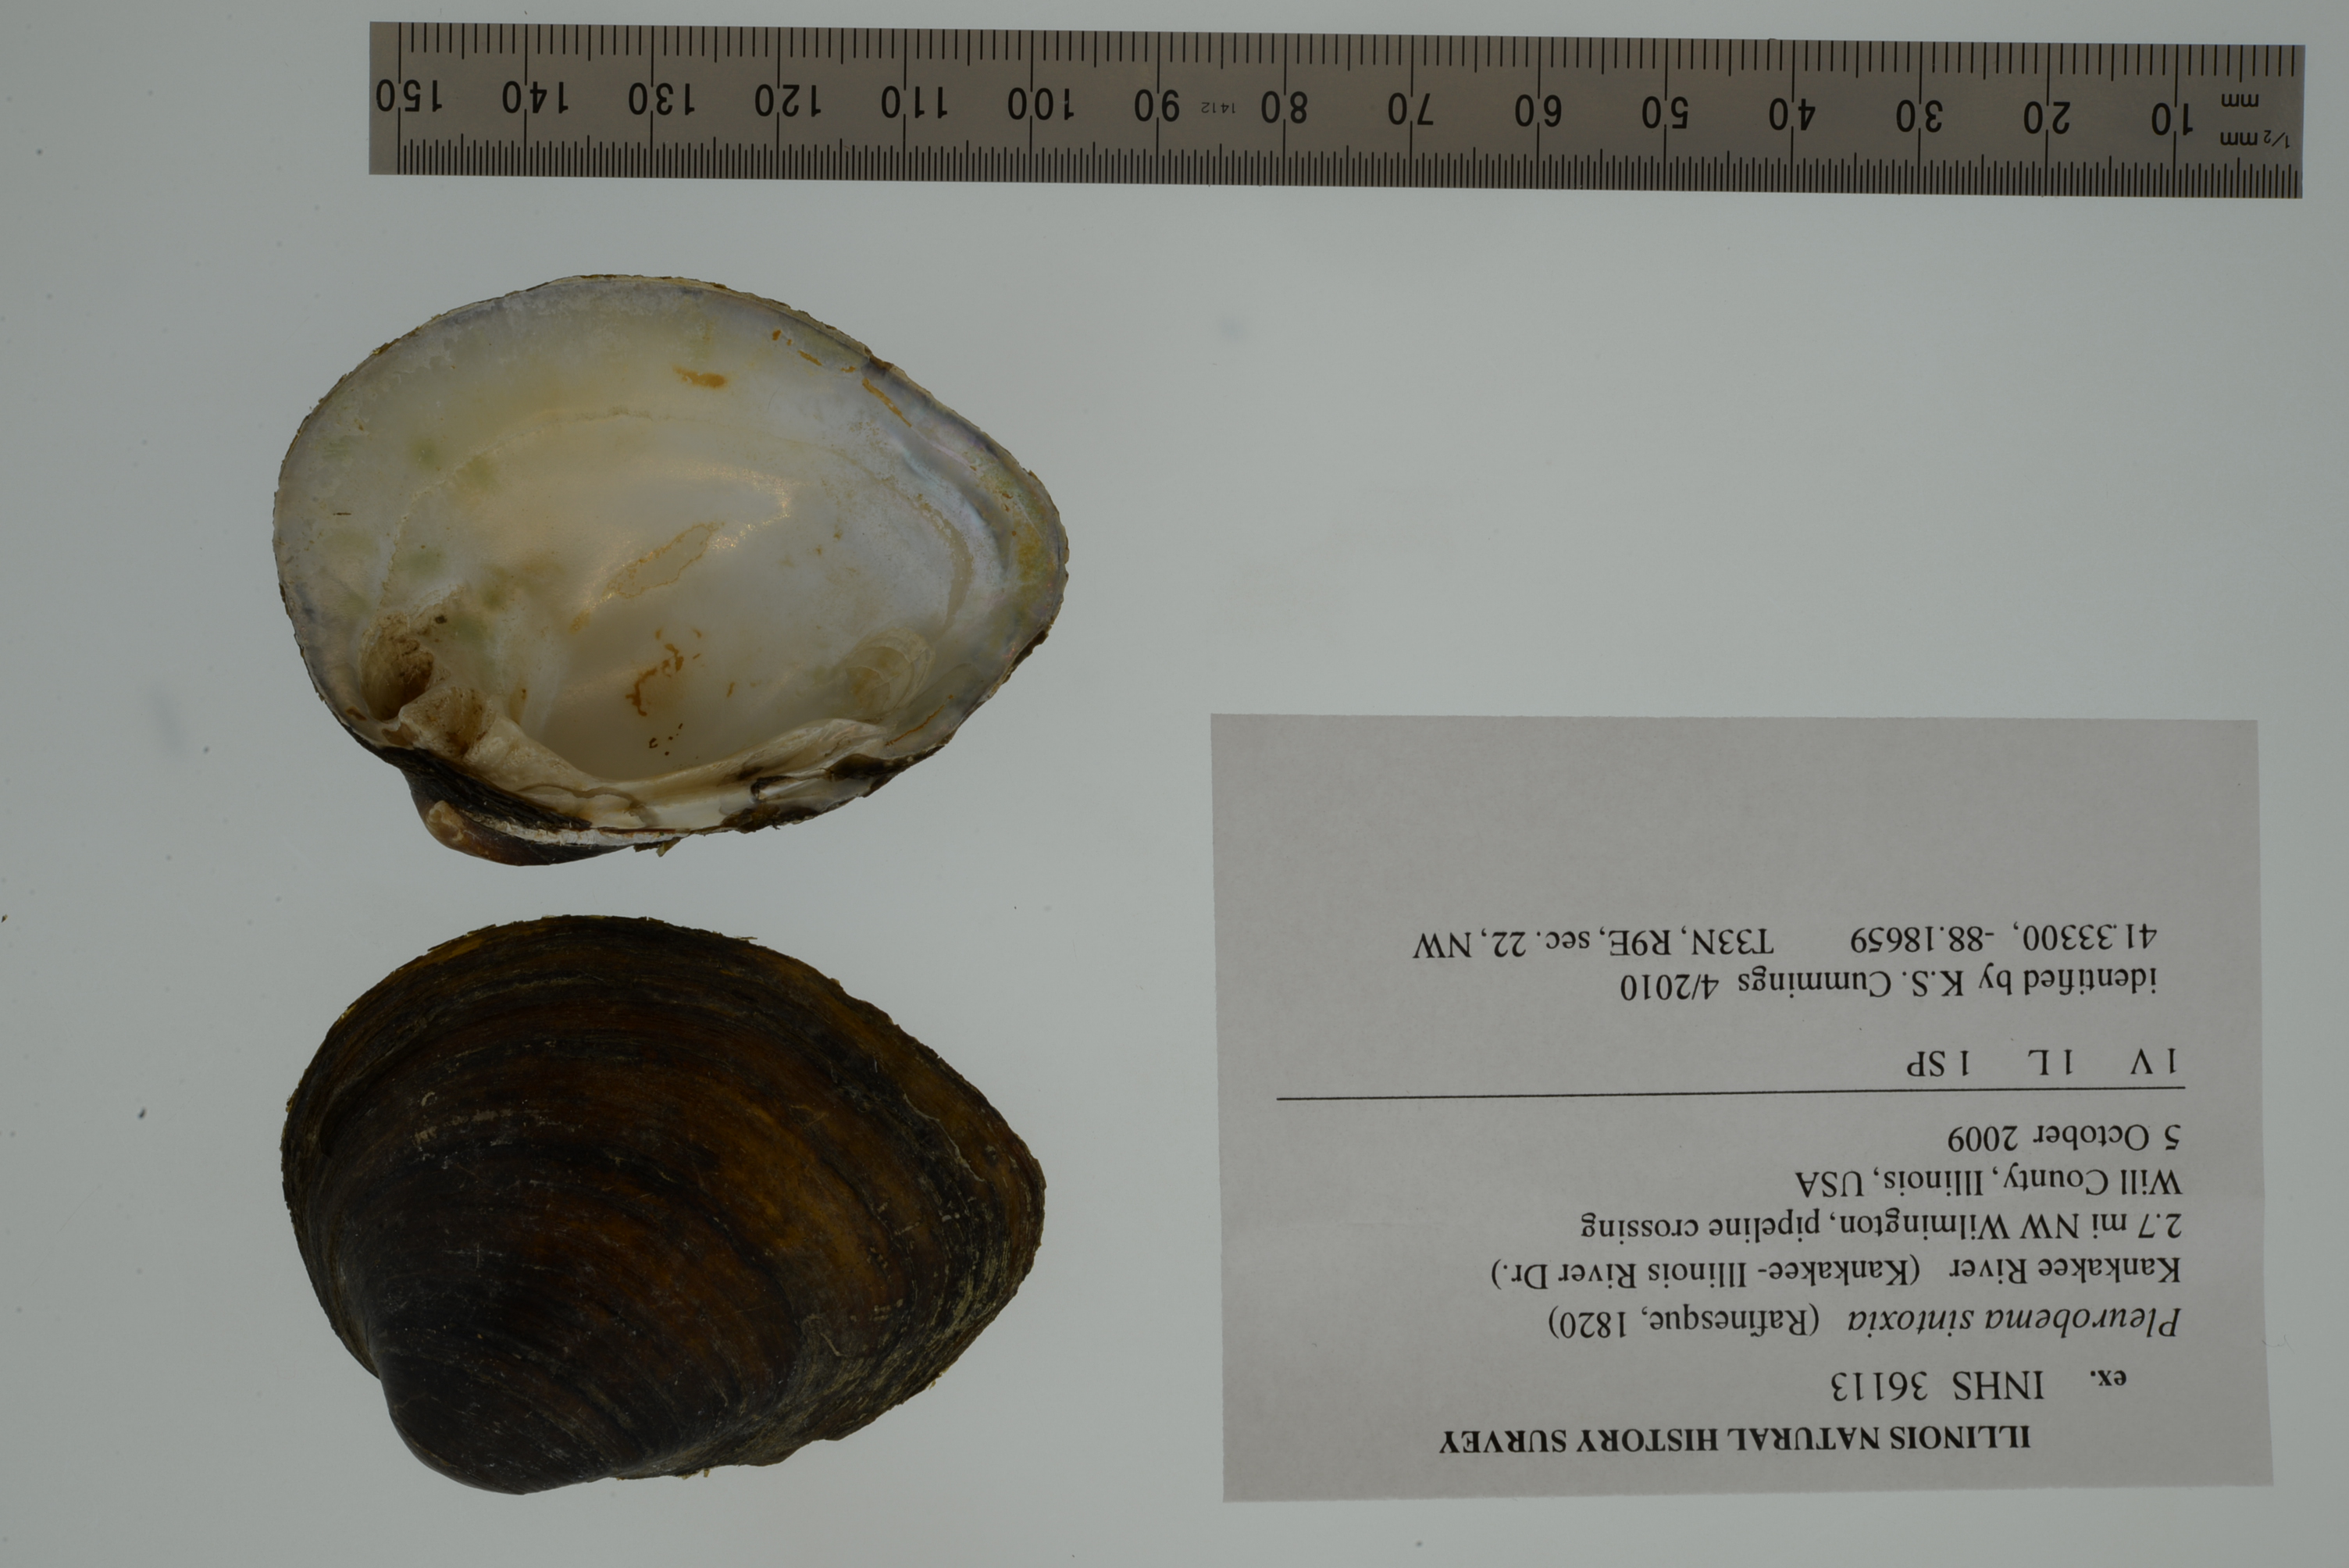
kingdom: Animalia
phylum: Mollusca
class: Bivalvia
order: Unionida
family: Unionidae
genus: Pleurobema
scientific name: Pleurobema sintoxia
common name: Round pigtoe
